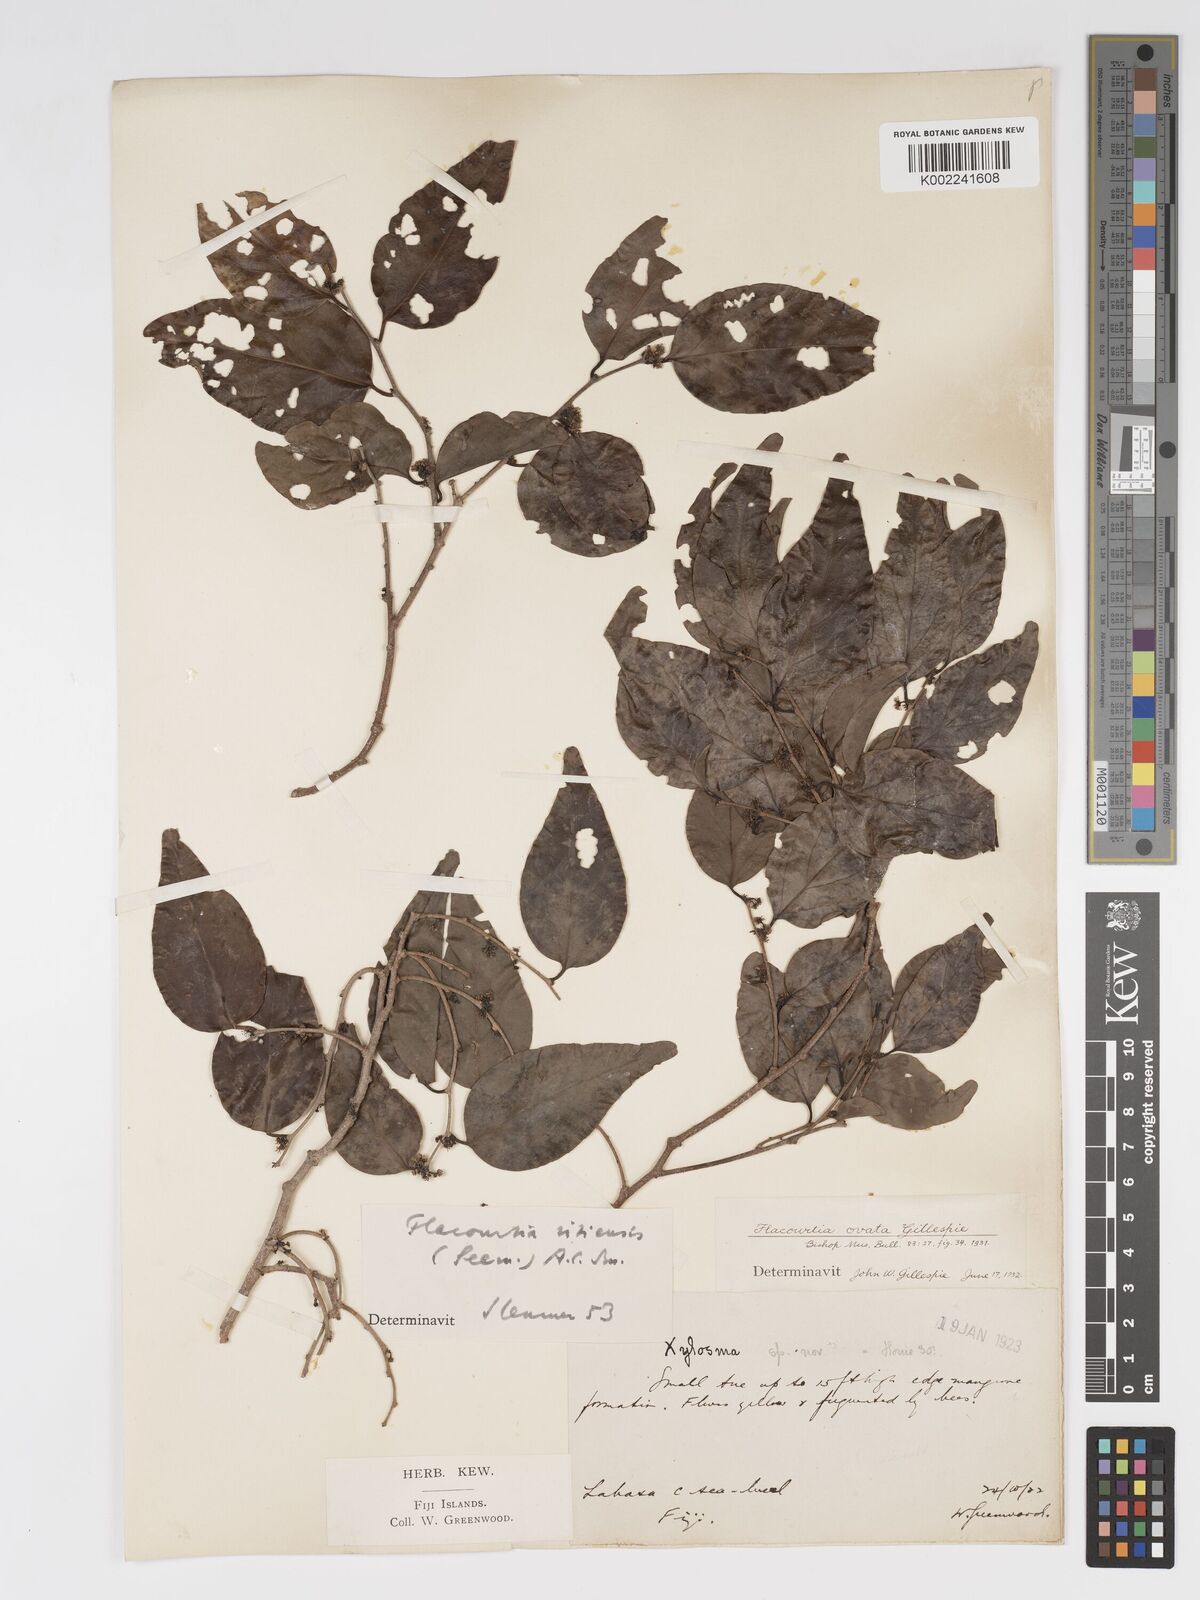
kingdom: Plantae
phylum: Tracheophyta
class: Magnoliopsida
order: Malpighiales
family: Salicaceae
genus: Flacourtia
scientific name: Flacourtia vitiensis
